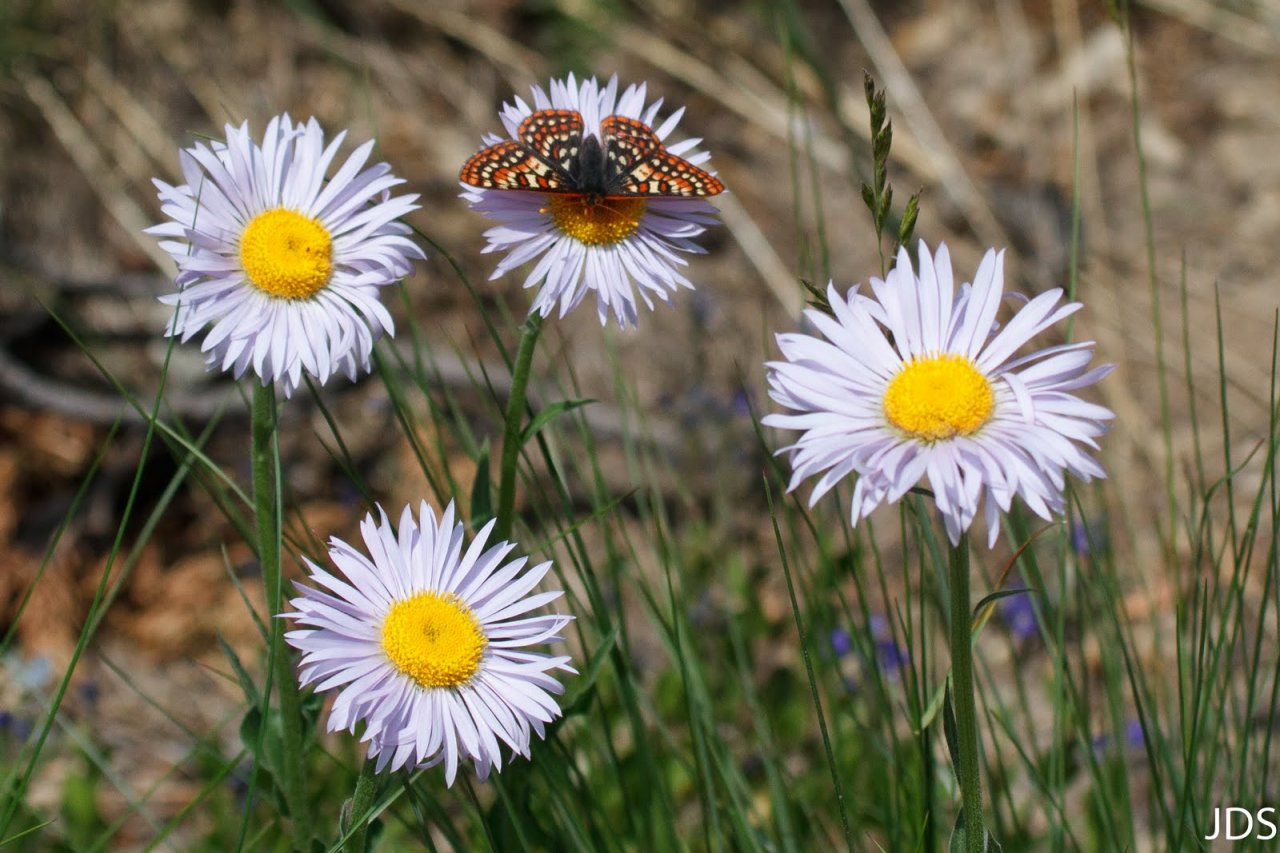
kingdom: Animalia
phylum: Arthropoda
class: Insecta
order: Lepidoptera
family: Nymphalidae
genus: Occidryas
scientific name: Occidryas editha
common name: Edith's Checkerspot
